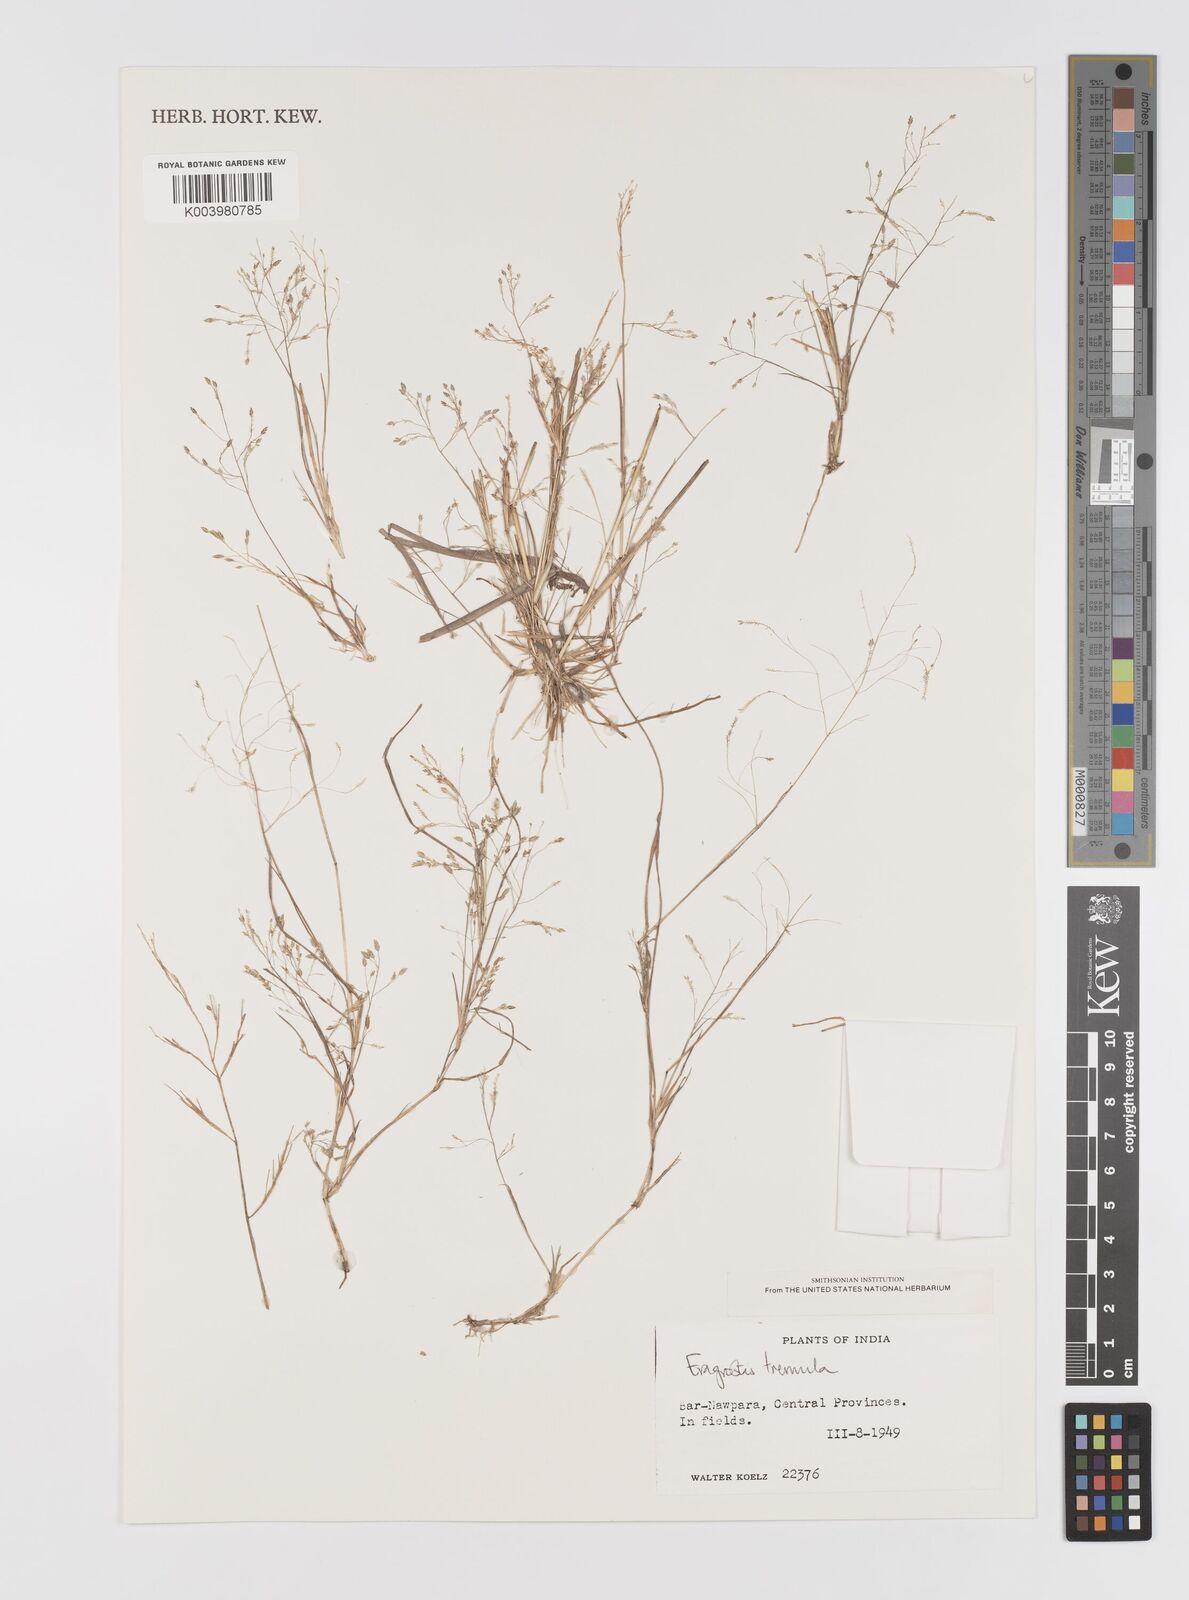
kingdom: Plantae
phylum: Tracheophyta
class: Liliopsida
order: Poales
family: Poaceae
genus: Eragrostis
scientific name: Eragrostis tremula
